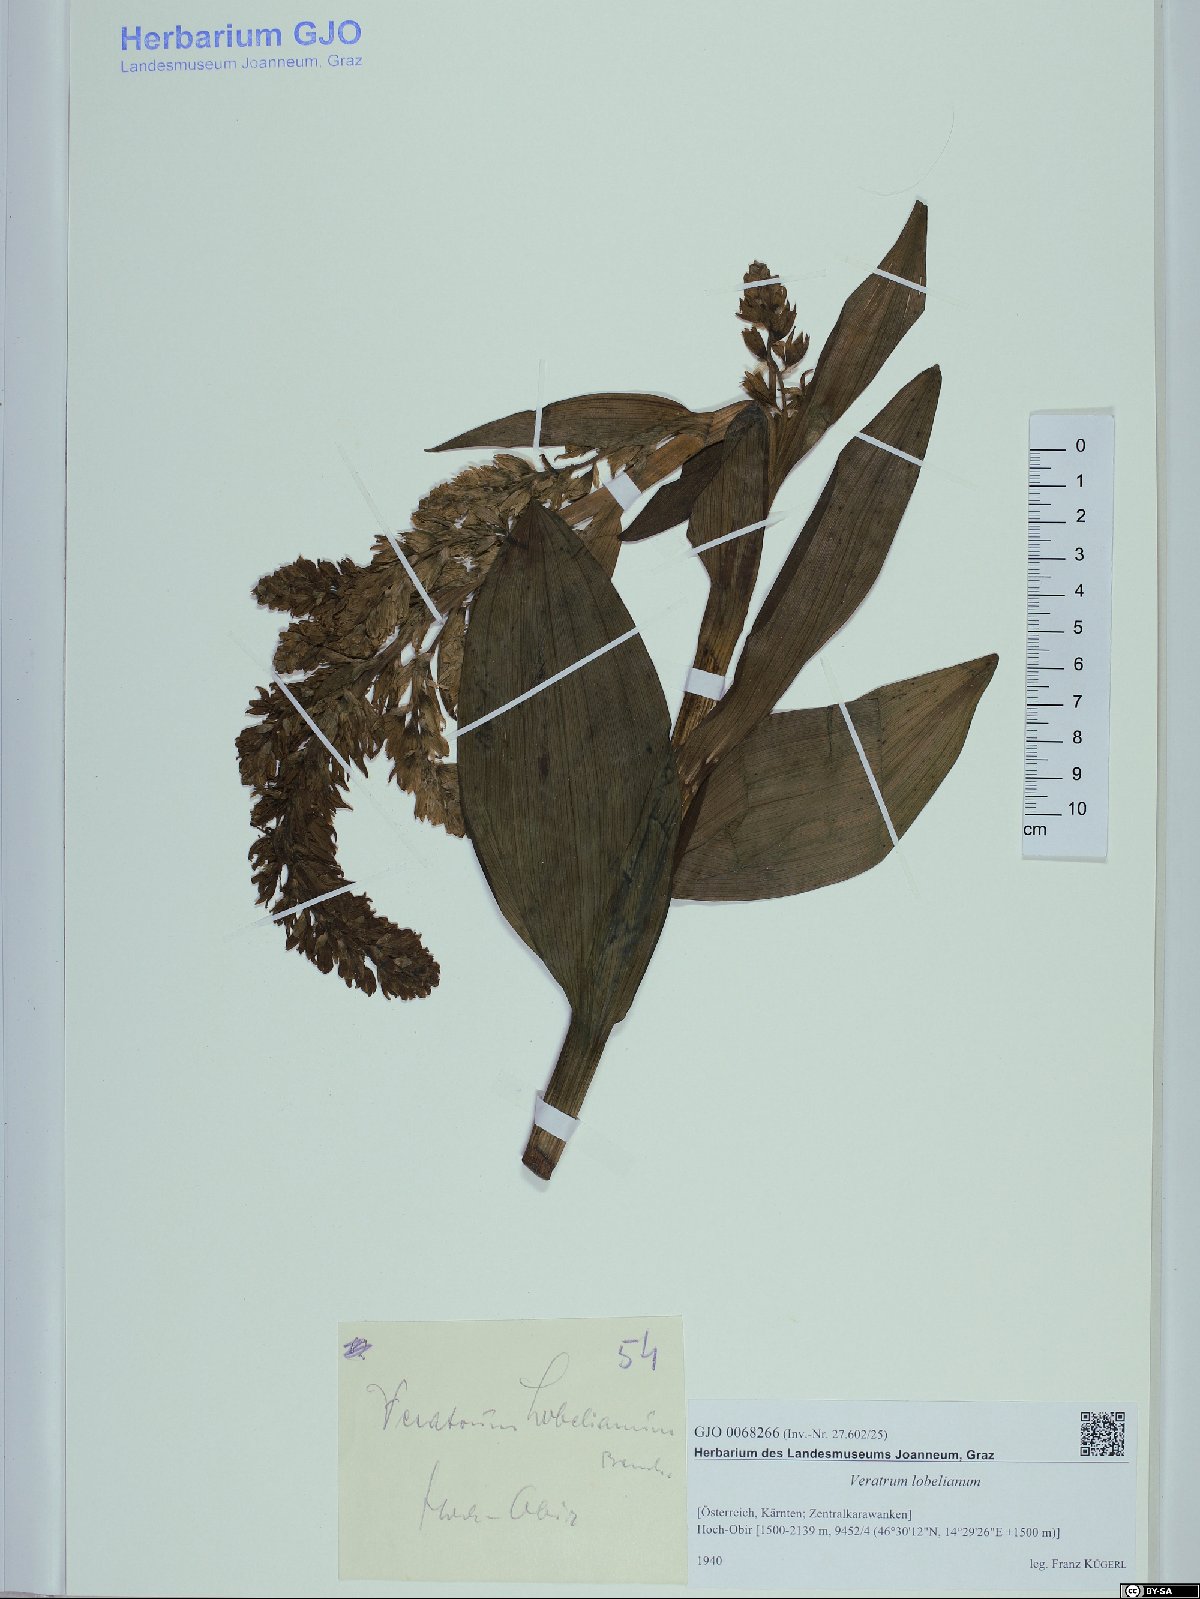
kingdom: Plantae
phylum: Tracheophyta
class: Liliopsida
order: Liliales
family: Melanthiaceae
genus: Veratrum
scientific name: Veratrum lobelianum
